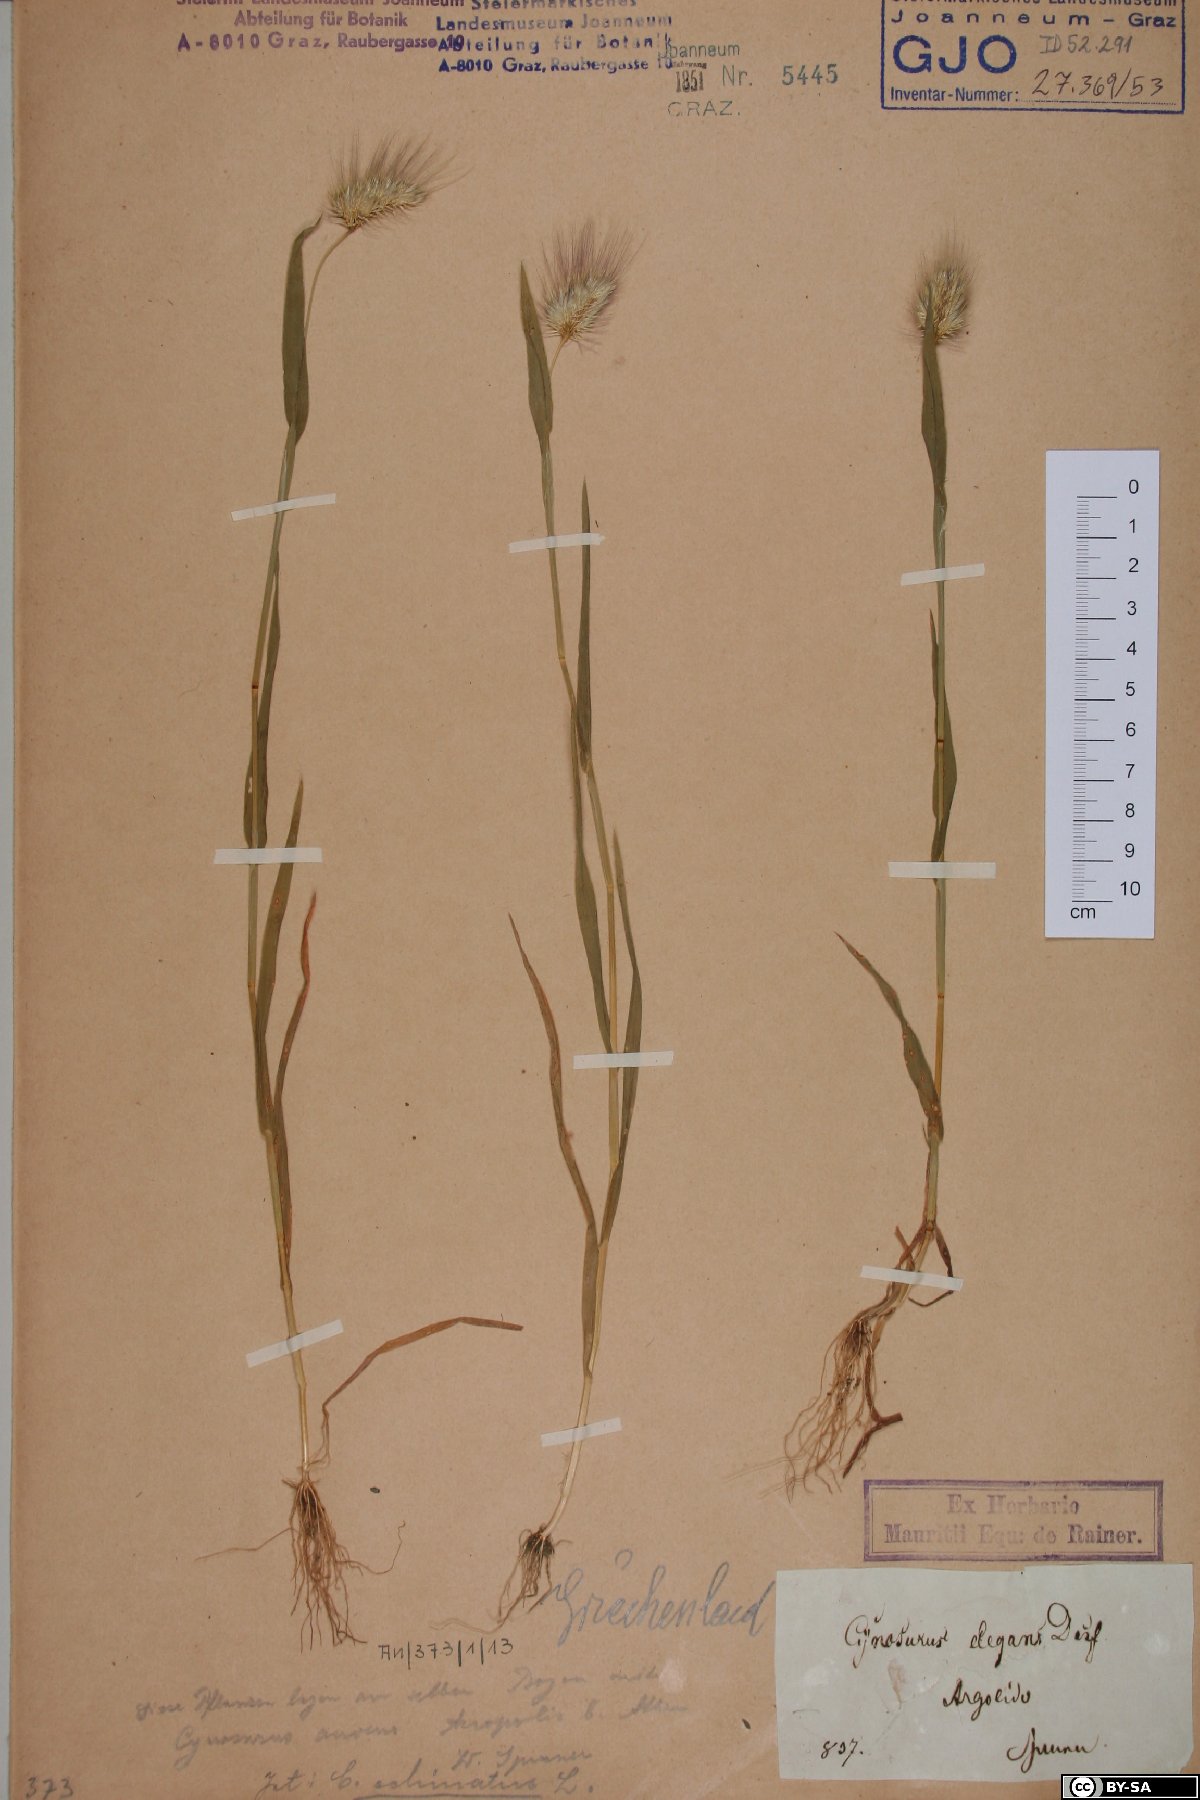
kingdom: Plantae
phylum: Tracheophyta
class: Liliopsida
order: Poales
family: Poaceae
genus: Cynosurus
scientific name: Cynosurus elegans
